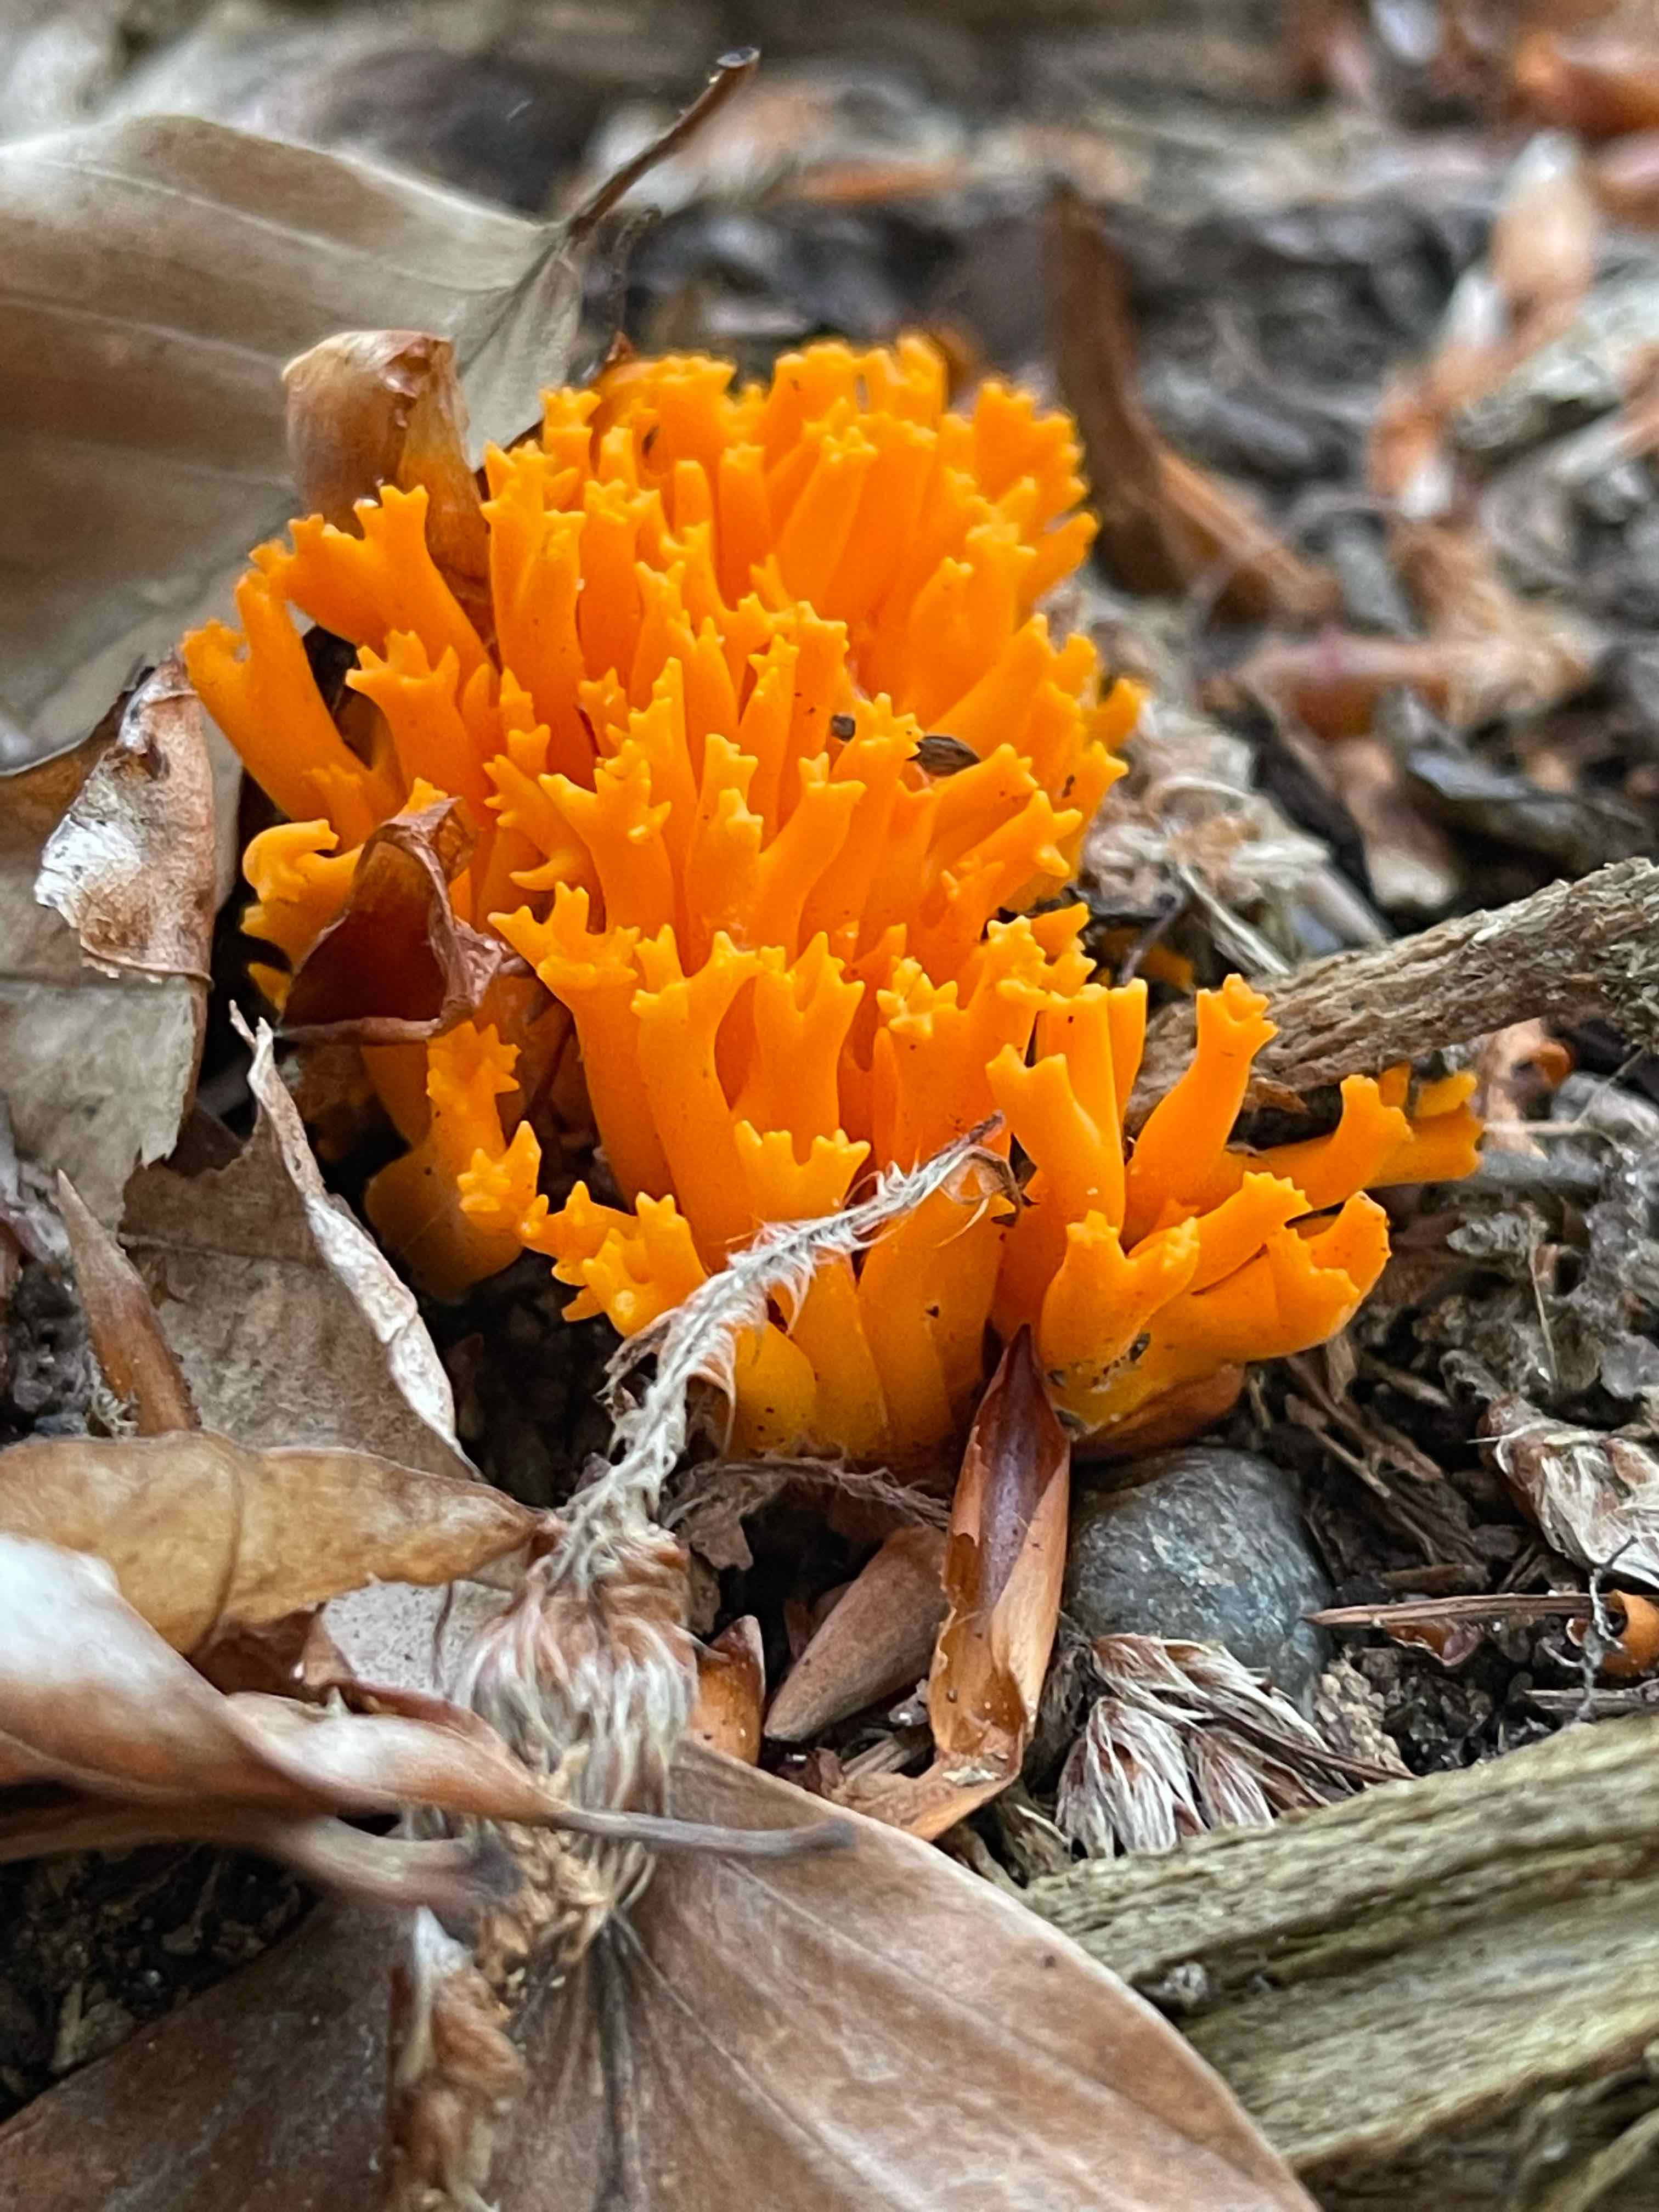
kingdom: Fungi
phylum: Basidiomycota
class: Dacrymycetes
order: Dacrymycetales
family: Dacrymycetaceae
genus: Calocera
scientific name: Calocera viscosa
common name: almindelig guldgaffel
